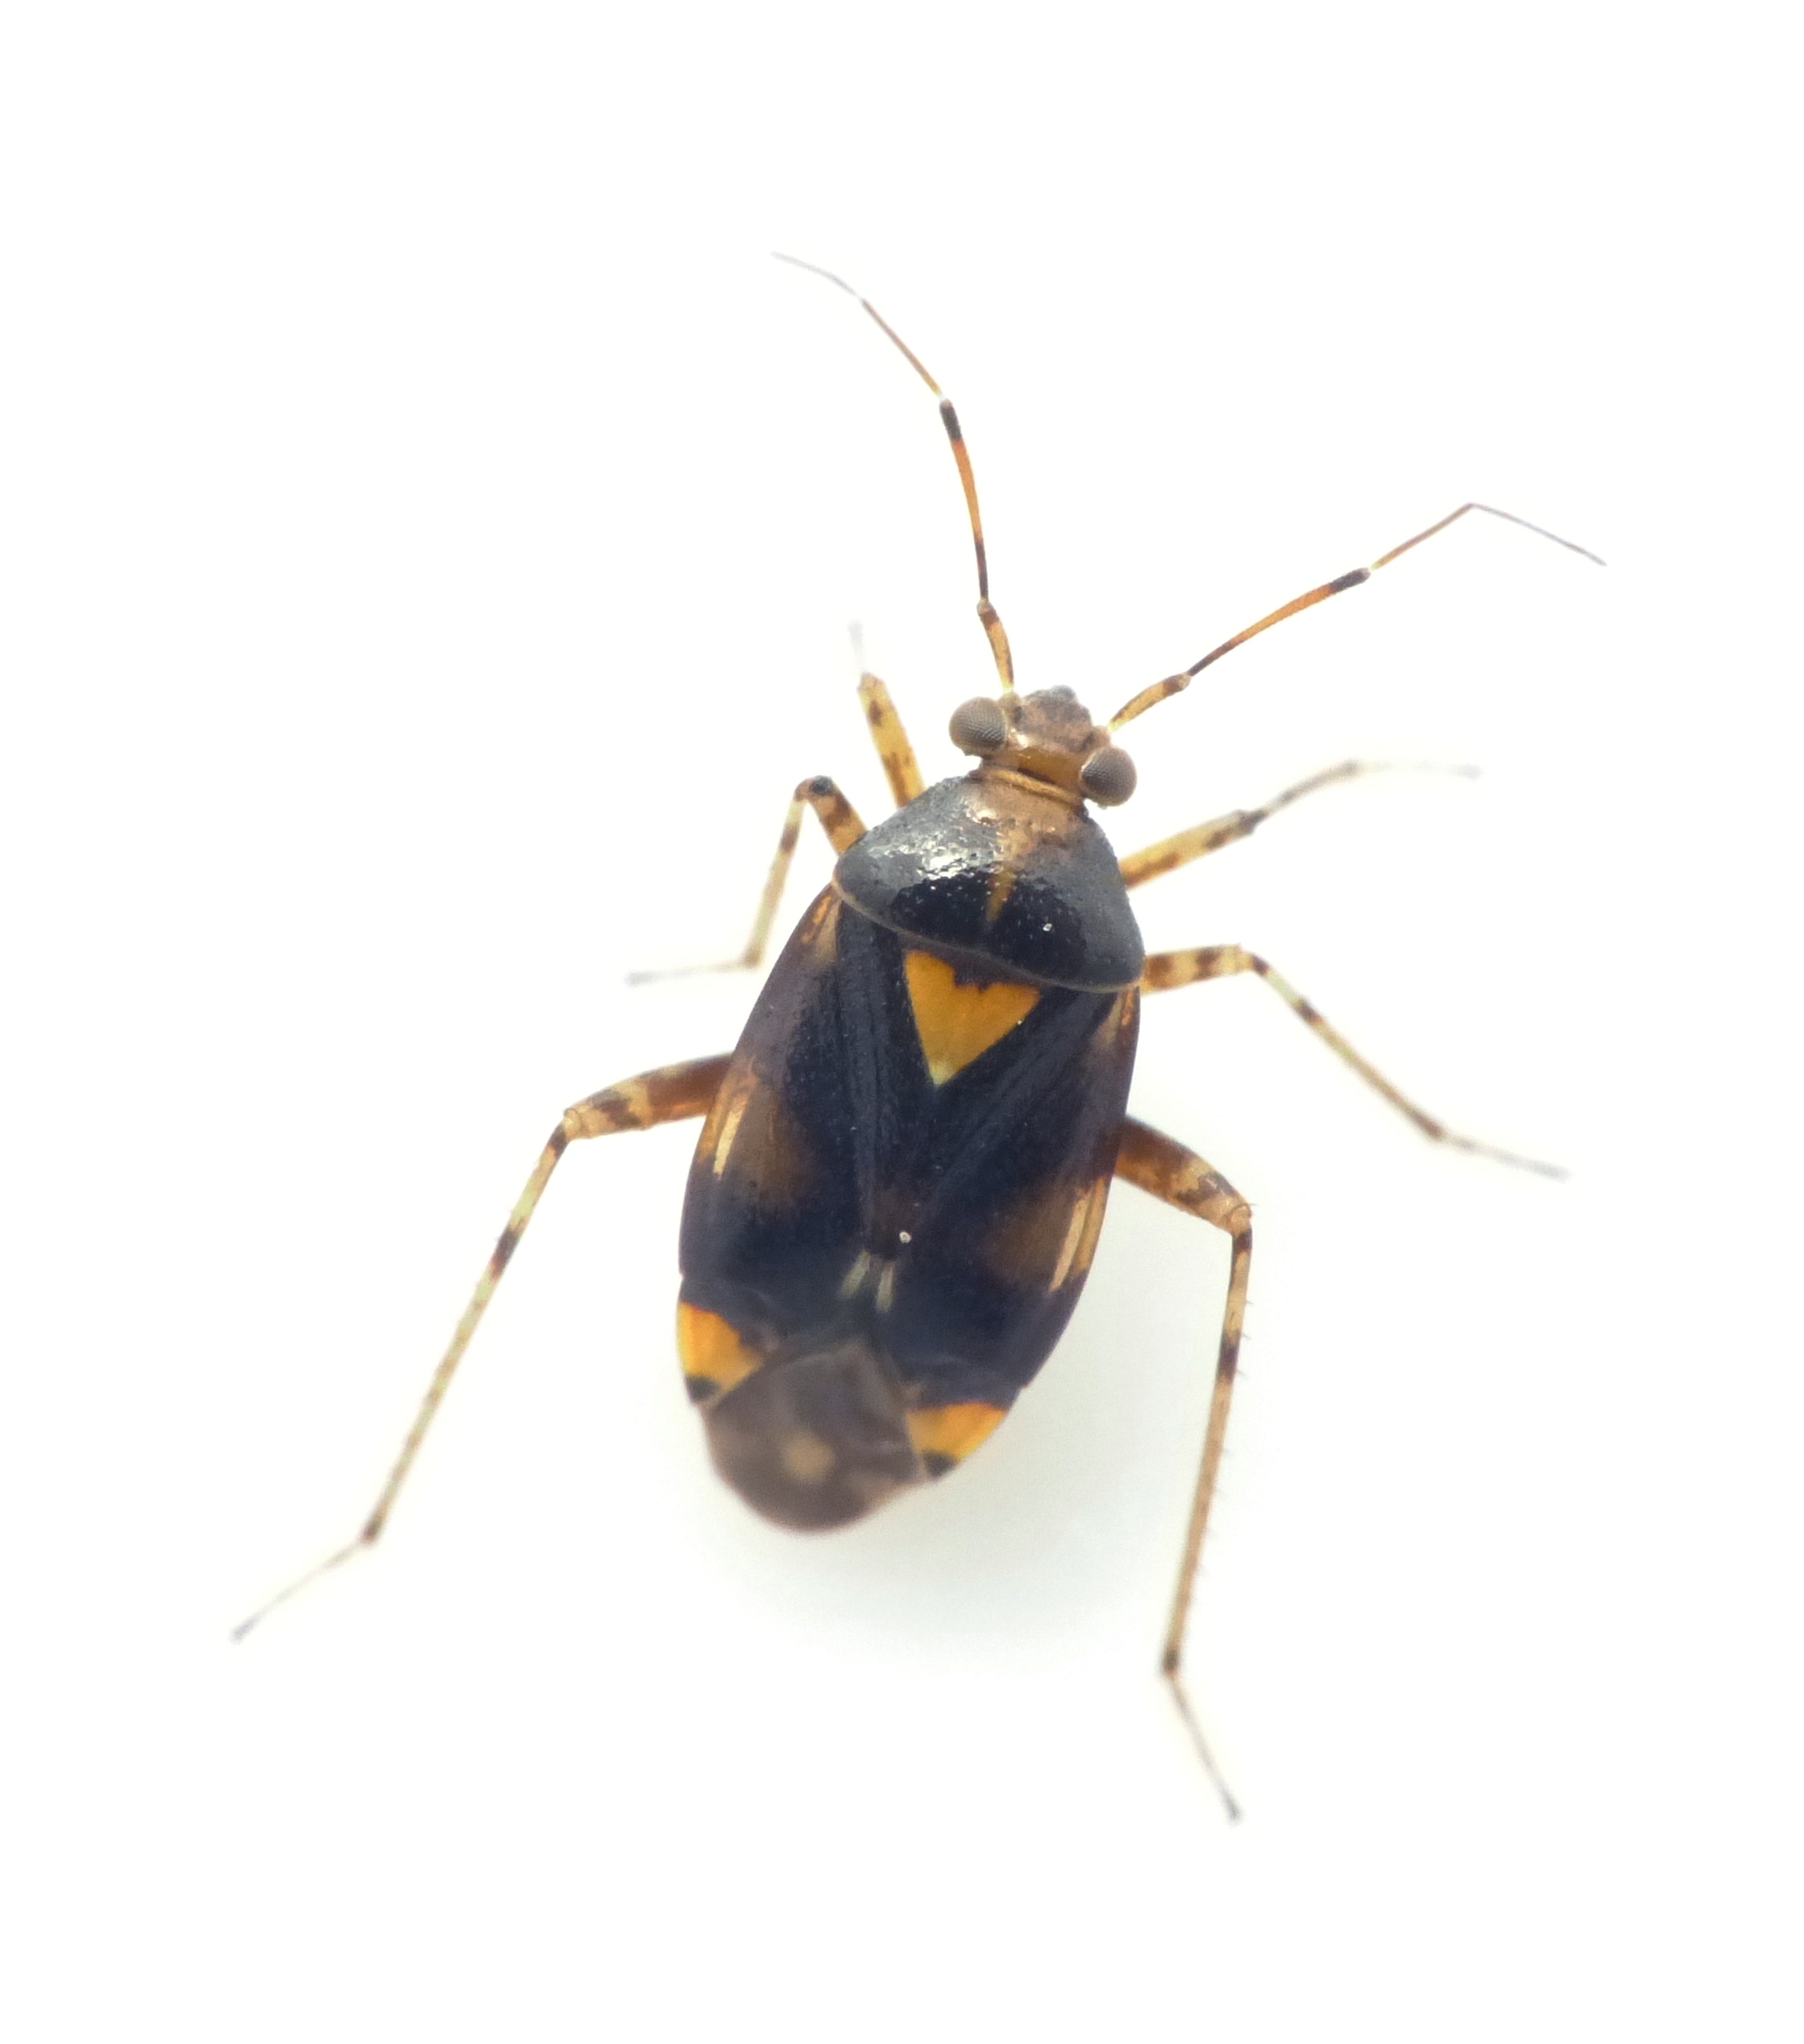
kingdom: Animalia
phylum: Arthropoda
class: Insecta
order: Hemiptera
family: Miridae
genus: Liocoris
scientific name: Liocoris tripustulatus
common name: Treplettet nældetæge
